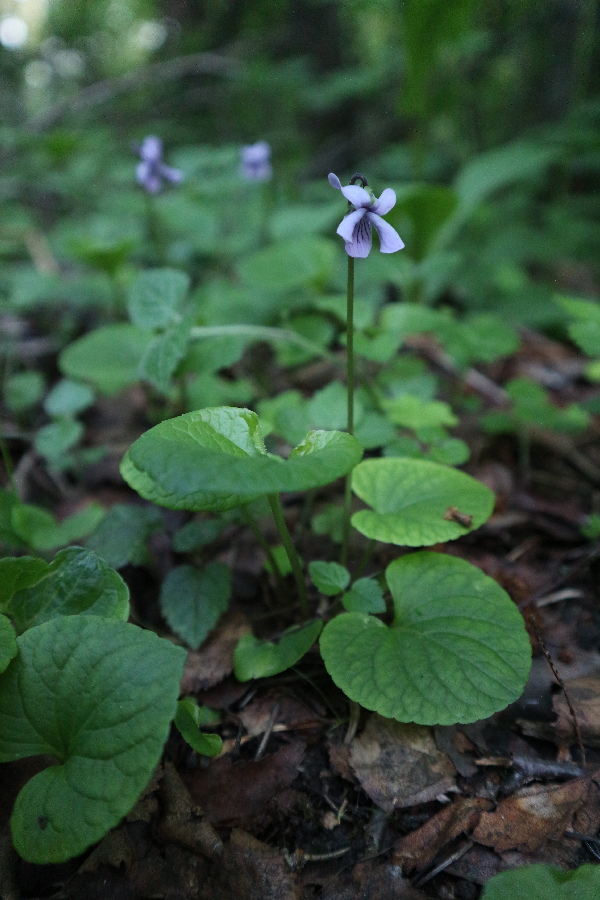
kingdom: Plantae
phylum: Tracheophyta
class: Magnoliopsida
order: Malpighiales
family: Violaceae
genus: Viola
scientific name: Viola mirabilis
